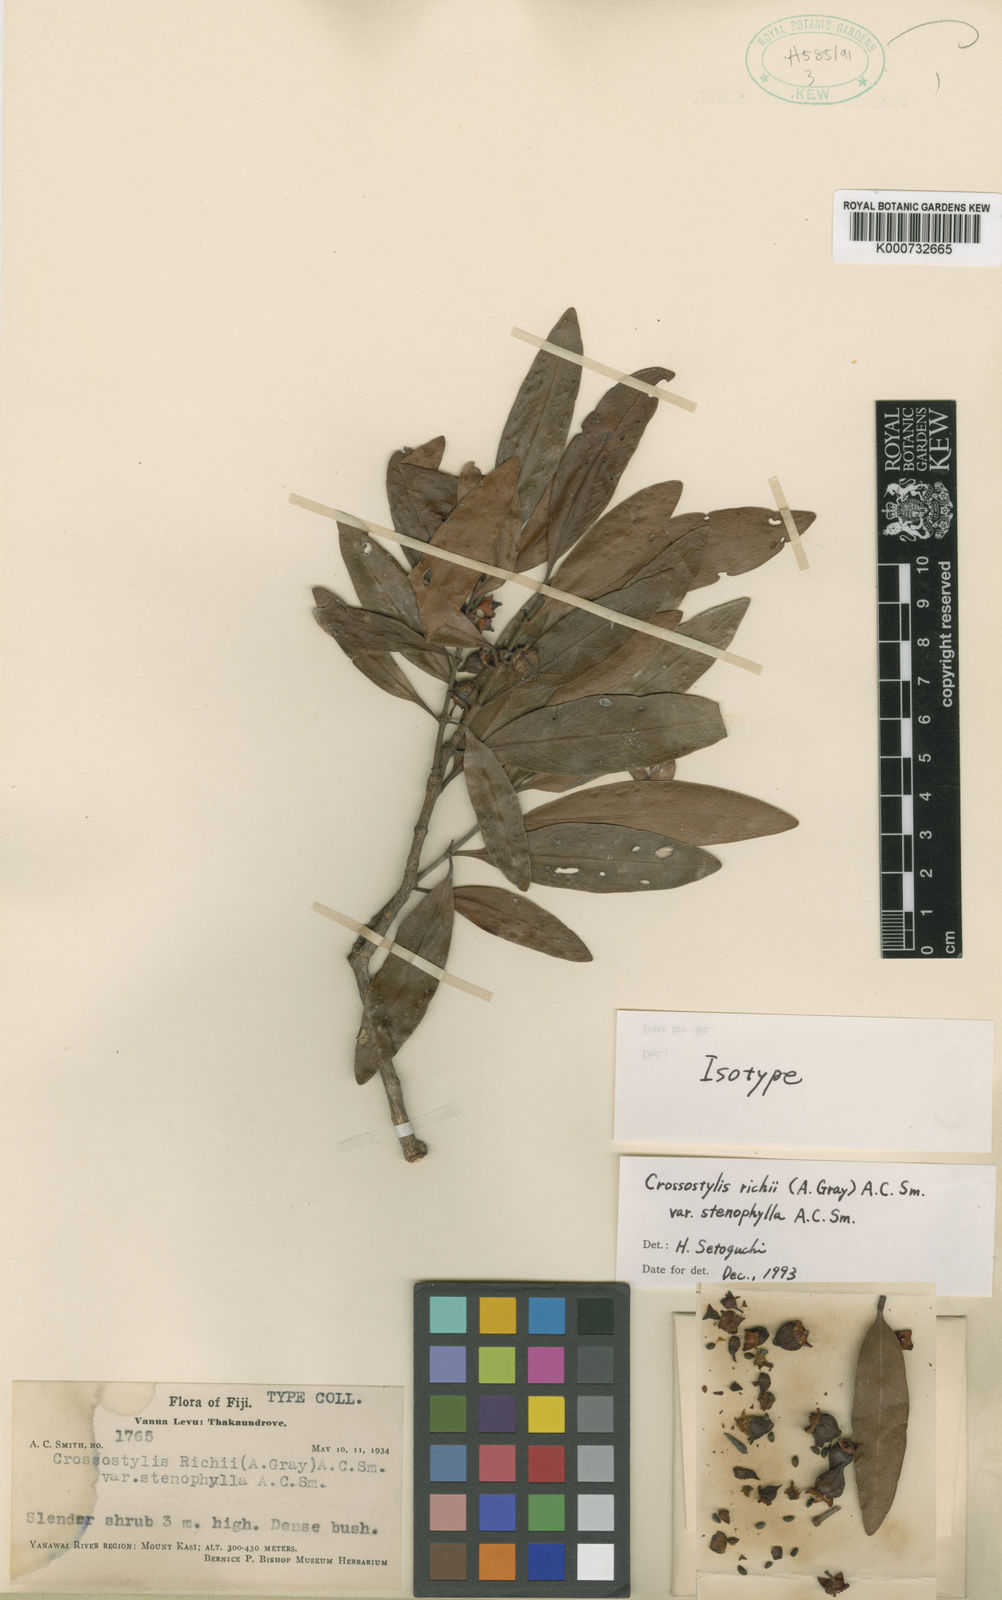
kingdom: Plantae
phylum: Tracheophyta
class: Magnoliopsida
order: Malpighiales
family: Rhizophoraceae
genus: Crossostylis
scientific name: Crossostylis richii
